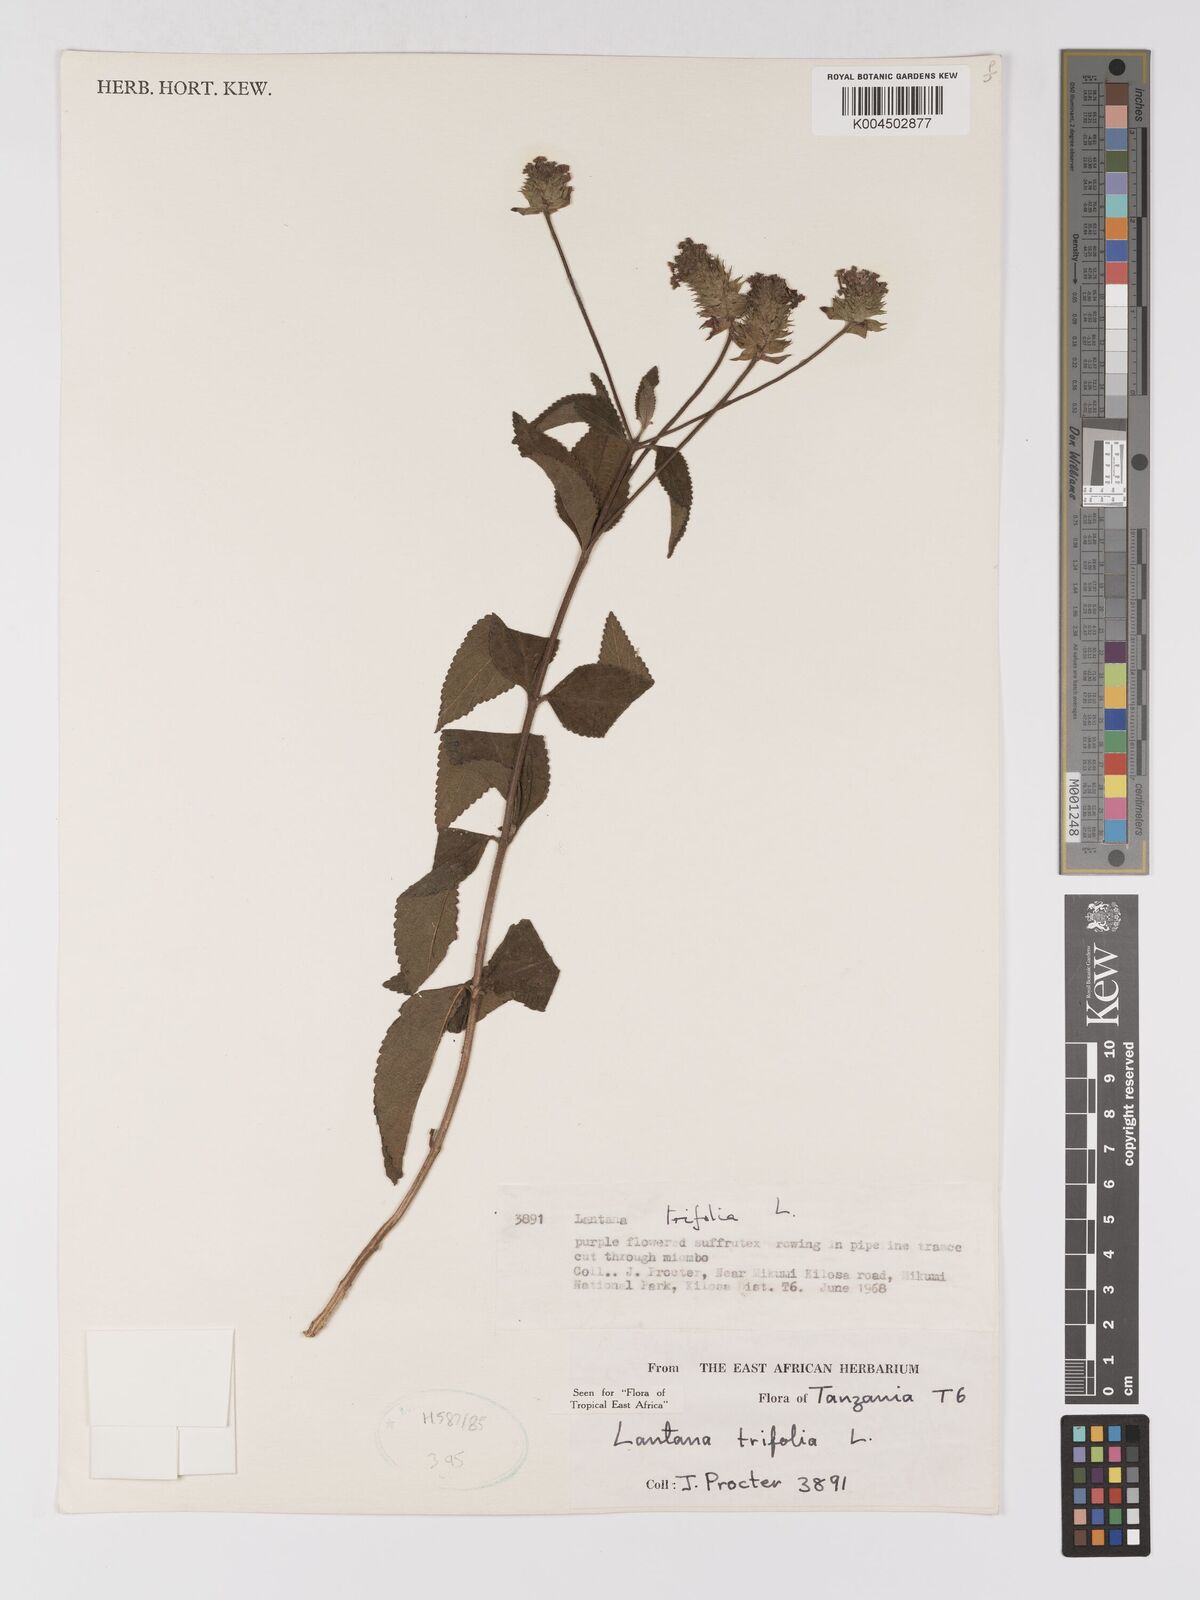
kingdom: Plantae
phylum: Tracheophyta
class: Magnoliopsida
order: Lamiales
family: Verbenaceae
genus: Lantana
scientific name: Lantana trifolia
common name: Sweet-sage
